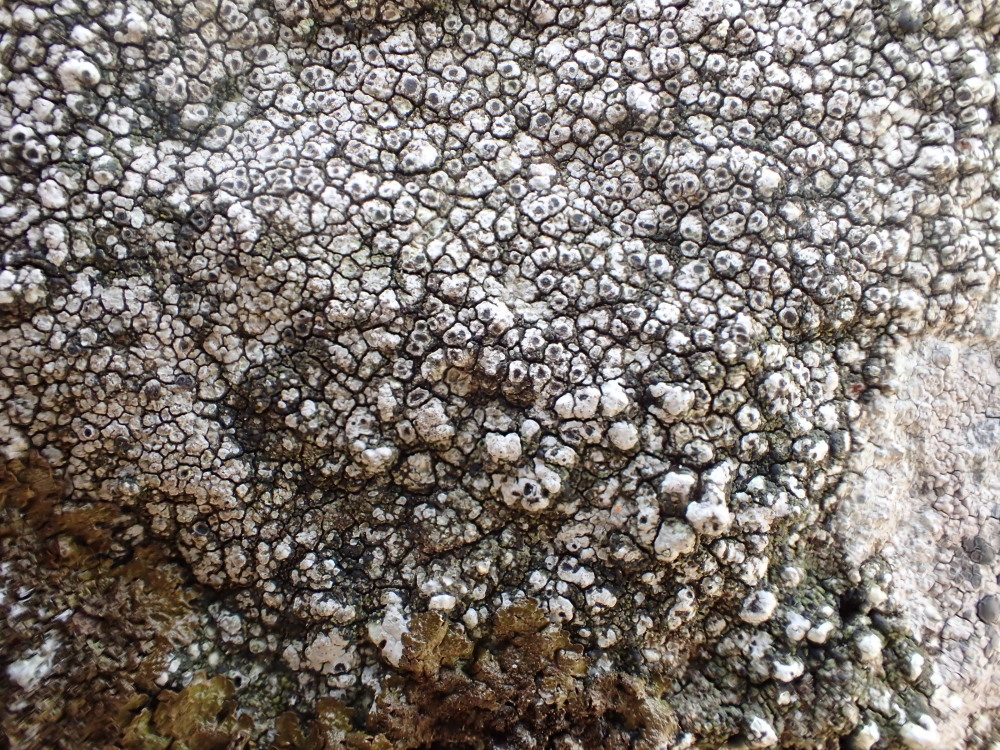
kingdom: Fungi
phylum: Ascomycota
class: Lecanoromycetes
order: Pertusariales
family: Megasporaceae
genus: Aspicilia
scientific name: Aspicilia
